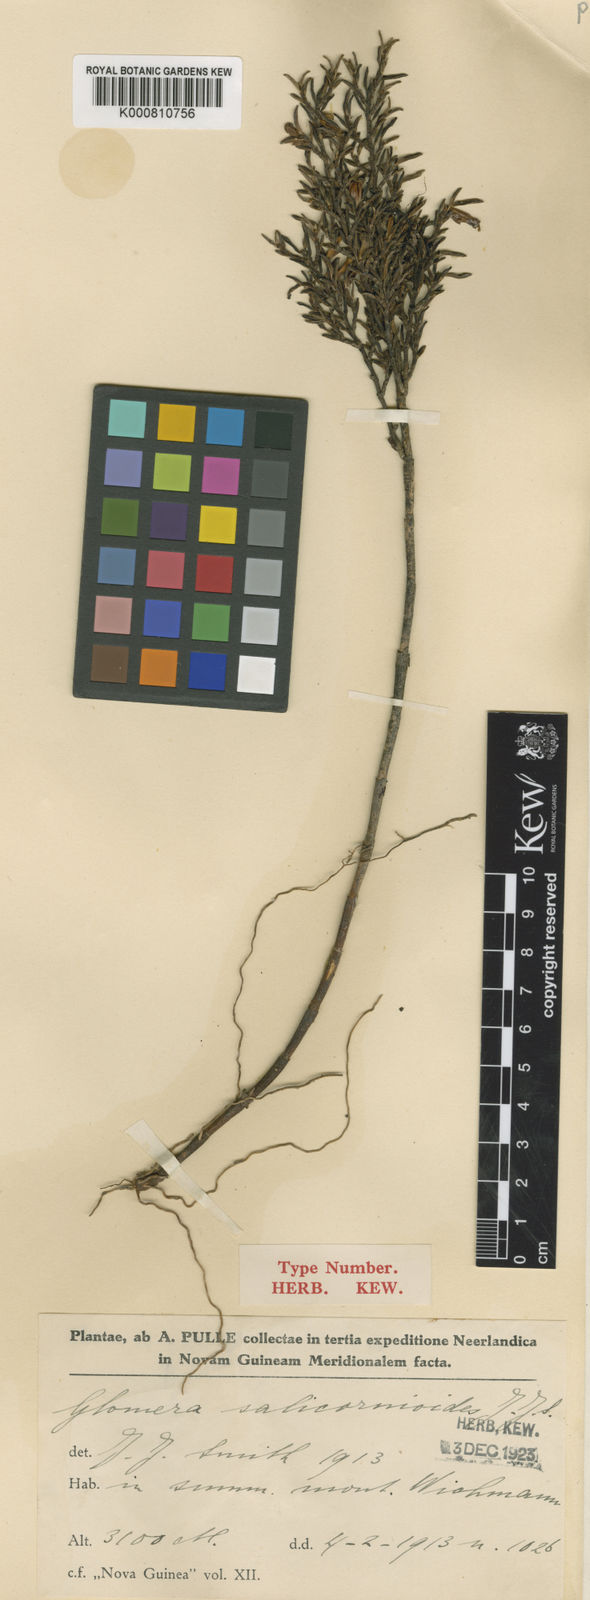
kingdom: Plantae
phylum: Tracheophyta
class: Liliopsida
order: Asparagales
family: Orchidaceae
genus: Glomera
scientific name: Glomera salicornioides
